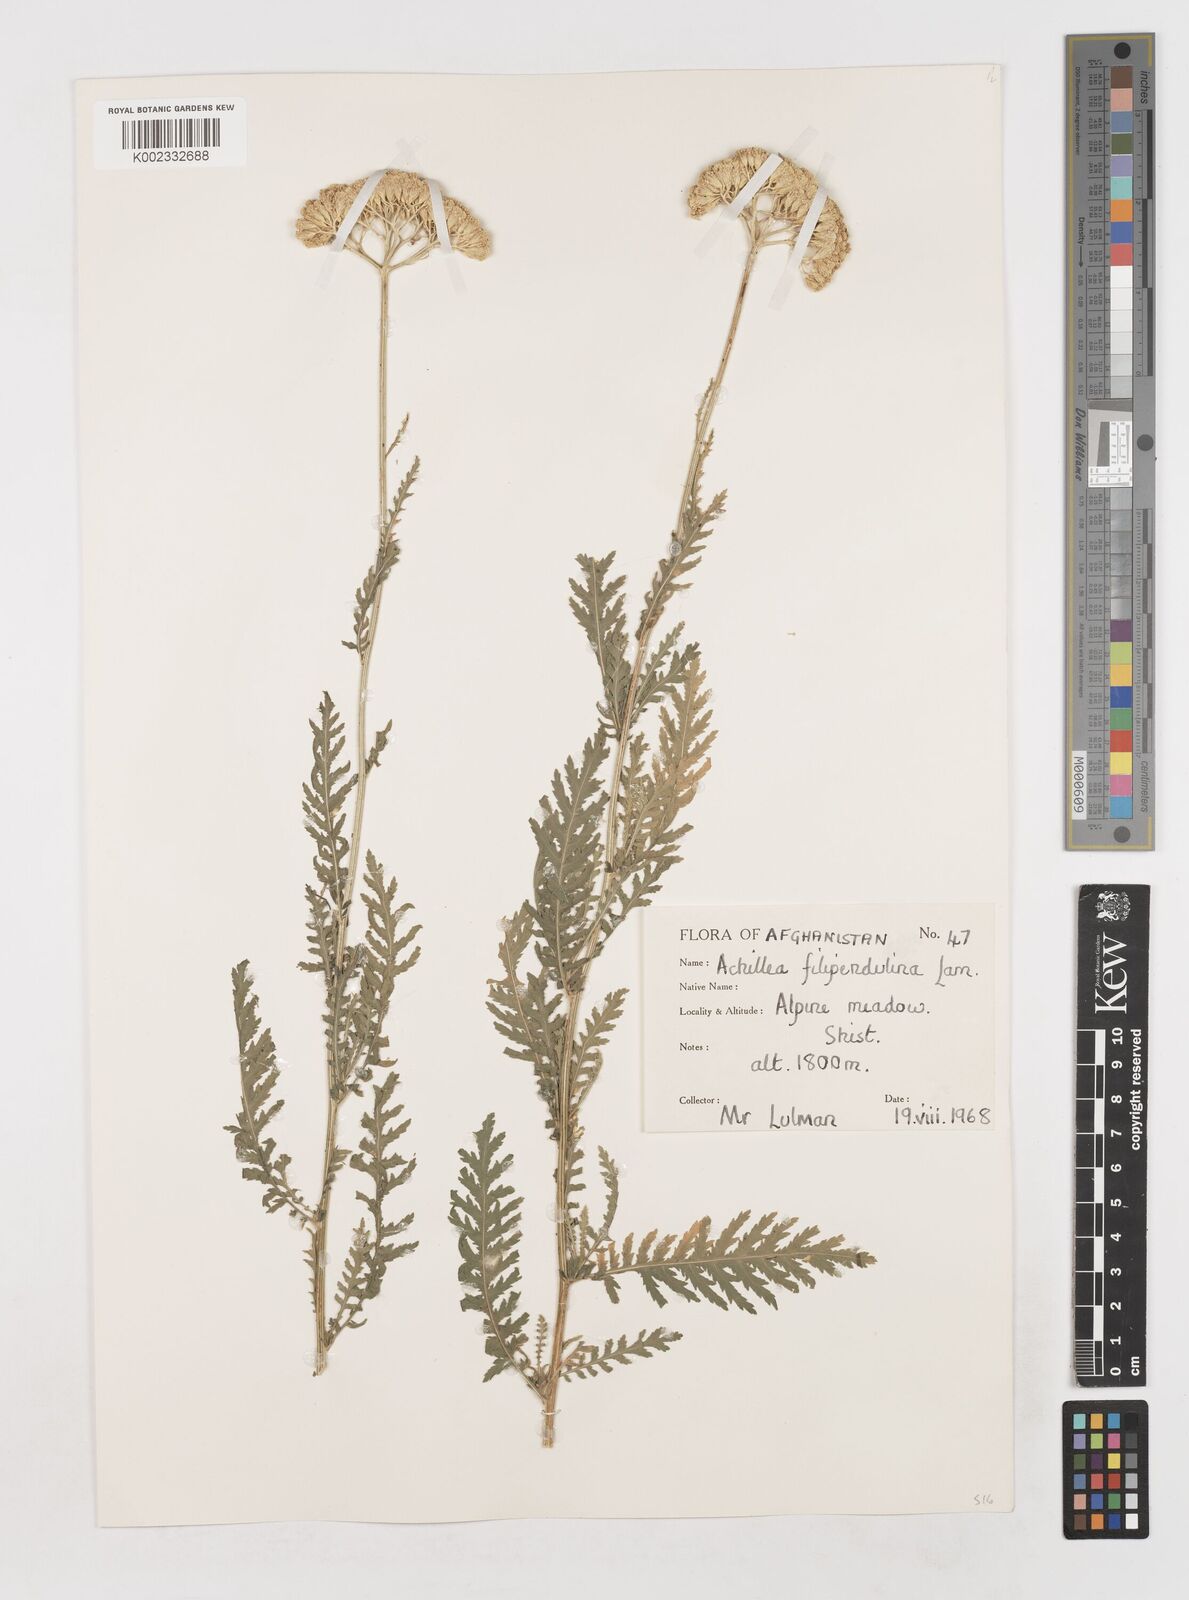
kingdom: Plantae
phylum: Tracheophyta
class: Magnoliopsida
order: Asterales
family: Asteraceae
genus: Achillea
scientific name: Achillea filipendulina
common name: Fernleaf yarrow
